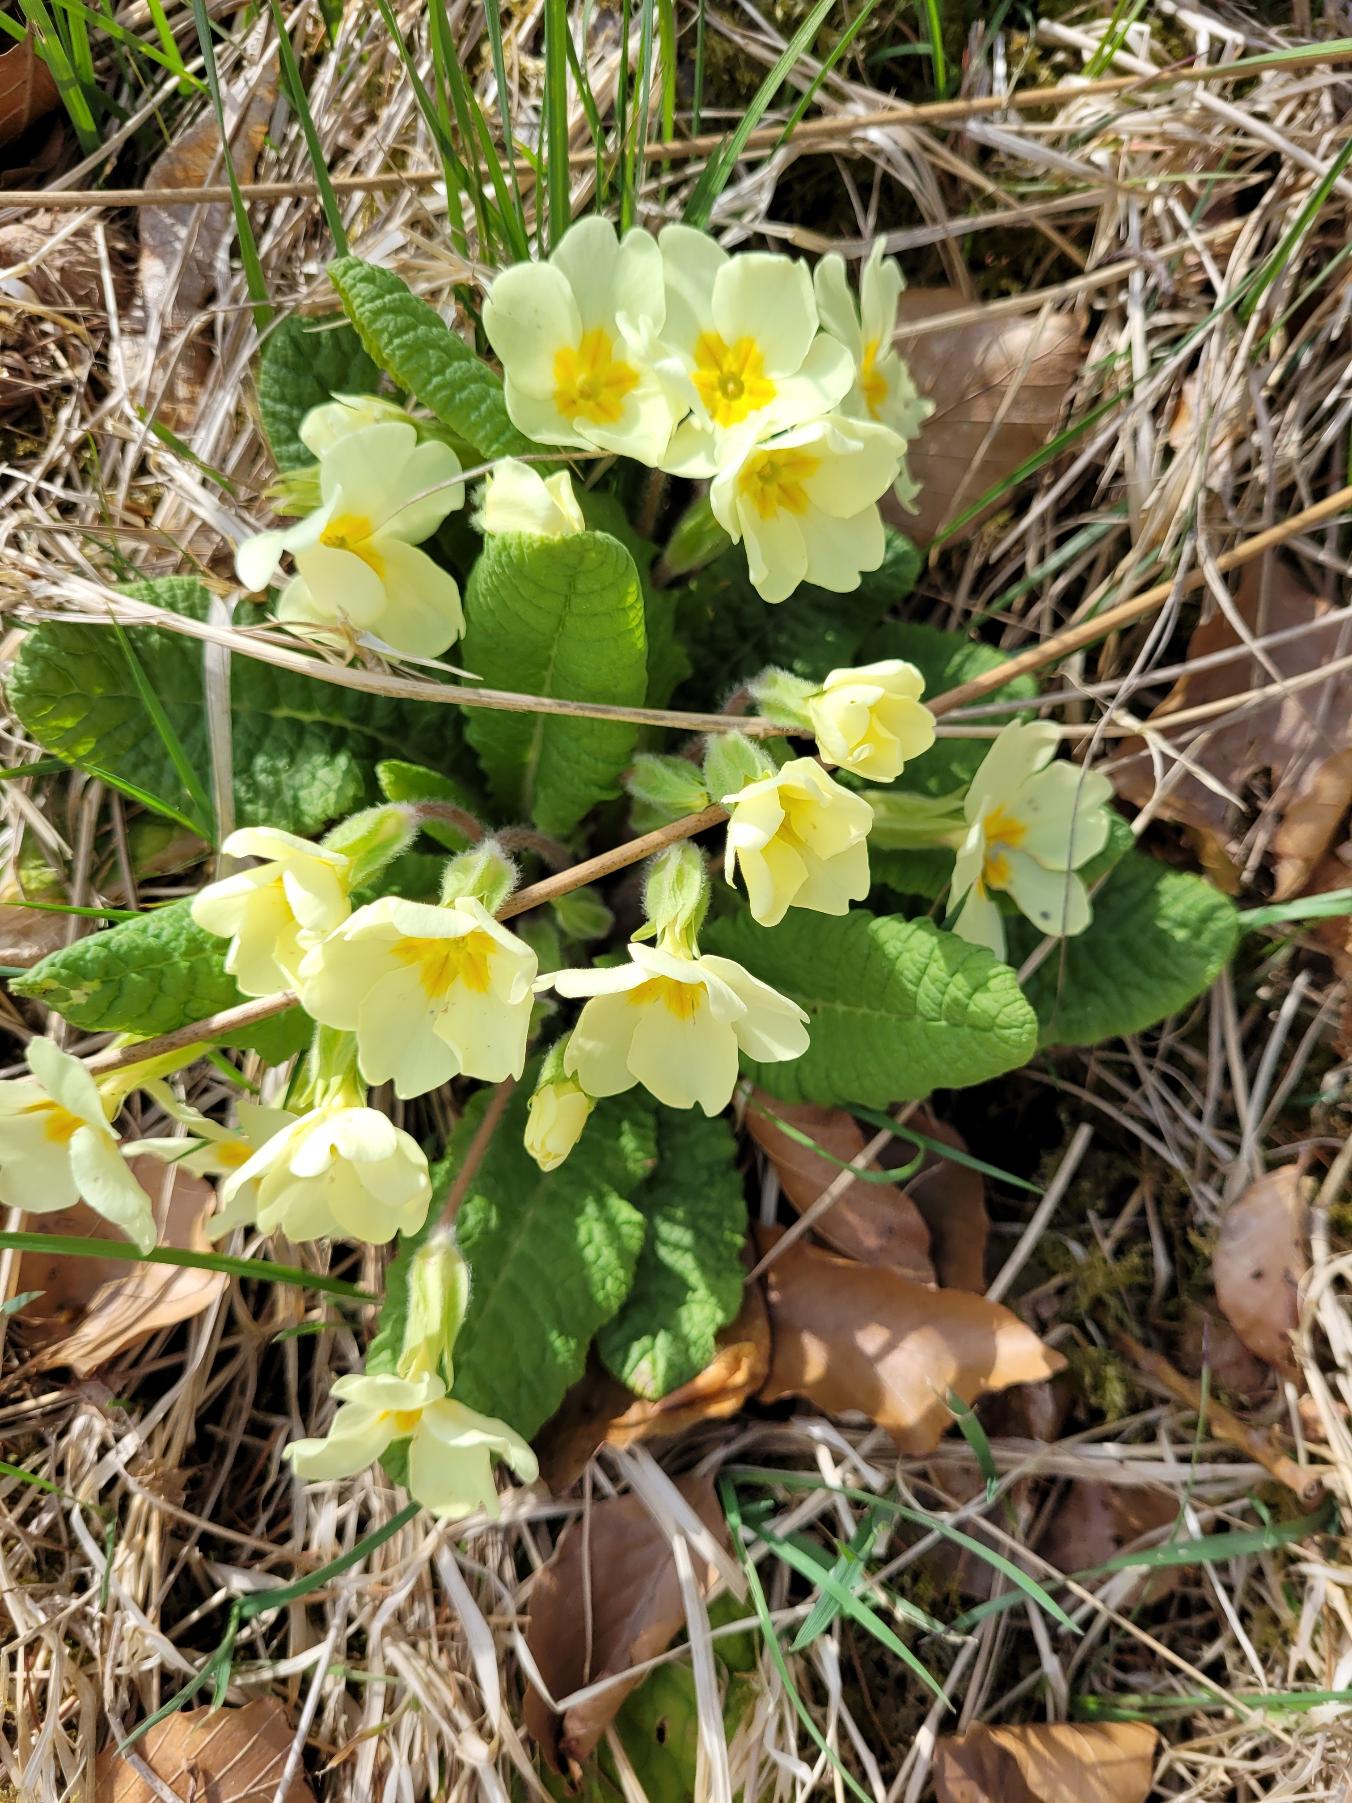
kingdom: Plantae
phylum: Tracheophyta
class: Magnoliopsida
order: Ericales
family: Primulaceae
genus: Primula
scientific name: Primula vulgaris
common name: Storblomstret kodriver
